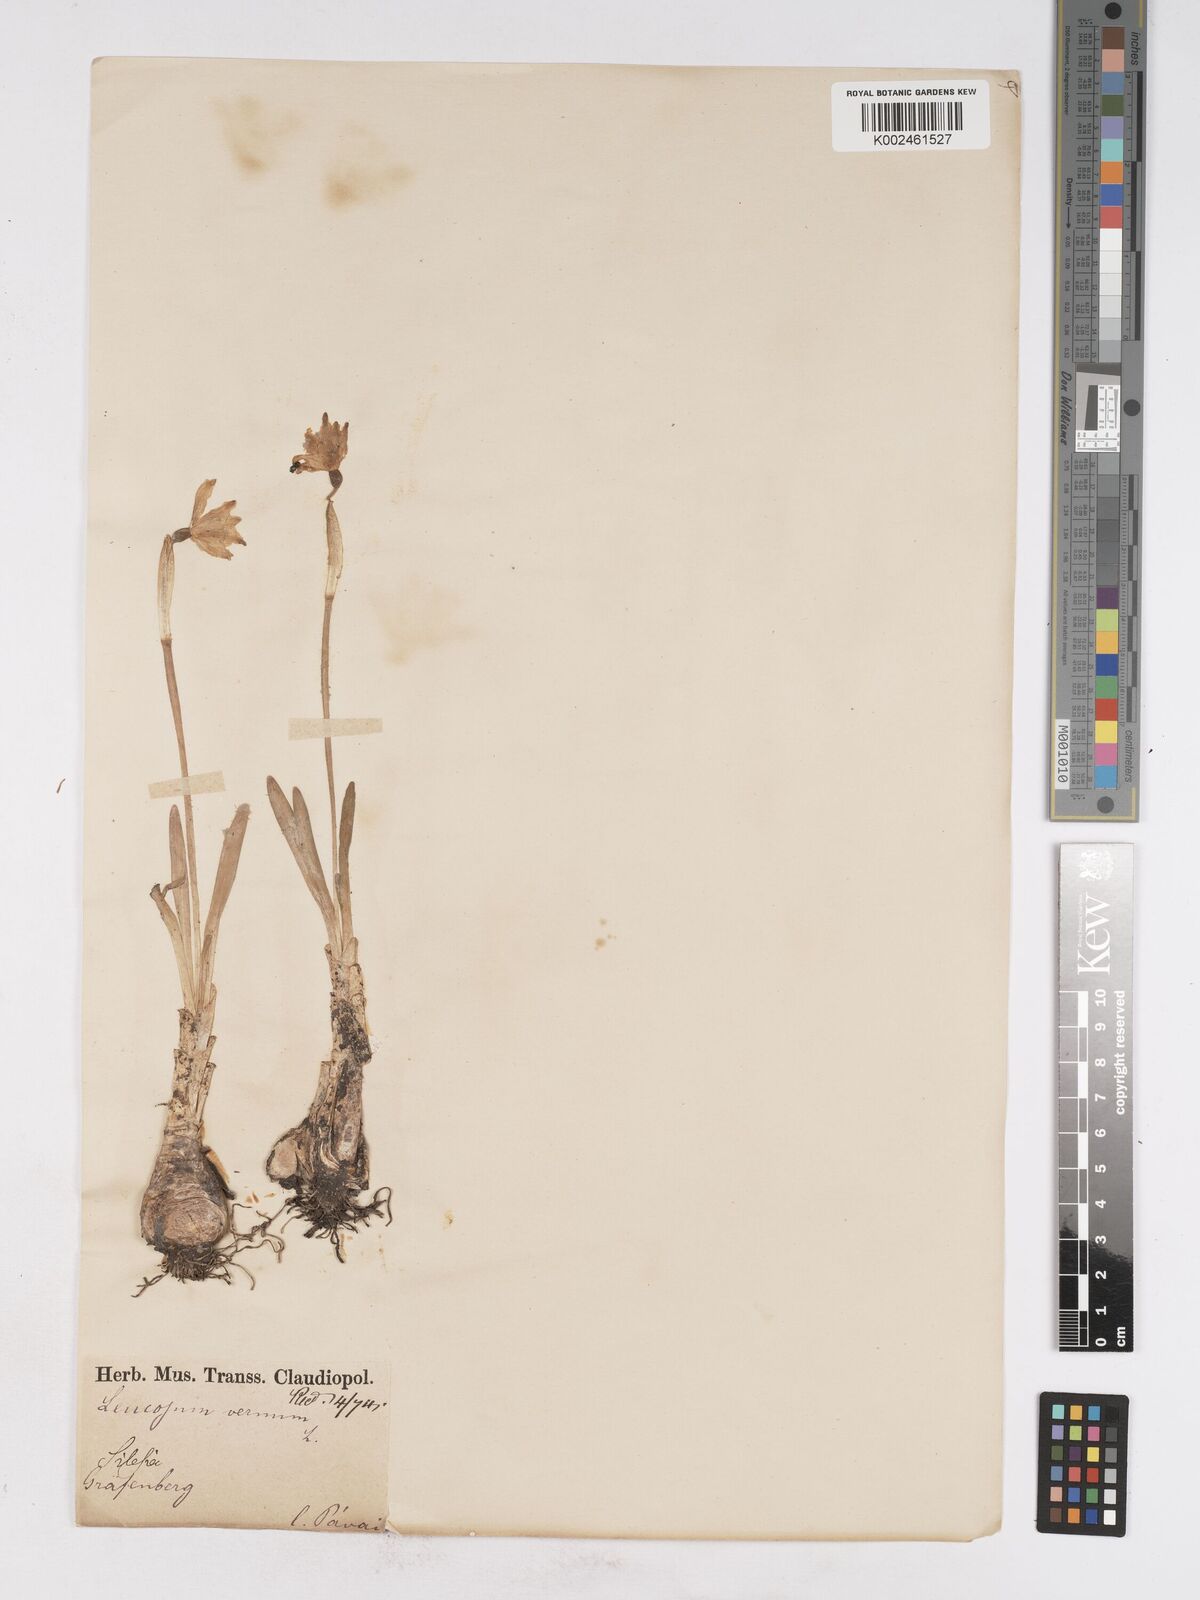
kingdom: Plantae
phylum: Tracheophyta
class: Liliopsida
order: Asparagales
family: Amaryllidaceae
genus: Leucojum
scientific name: Leucojum vernum
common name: Spring snowflake
